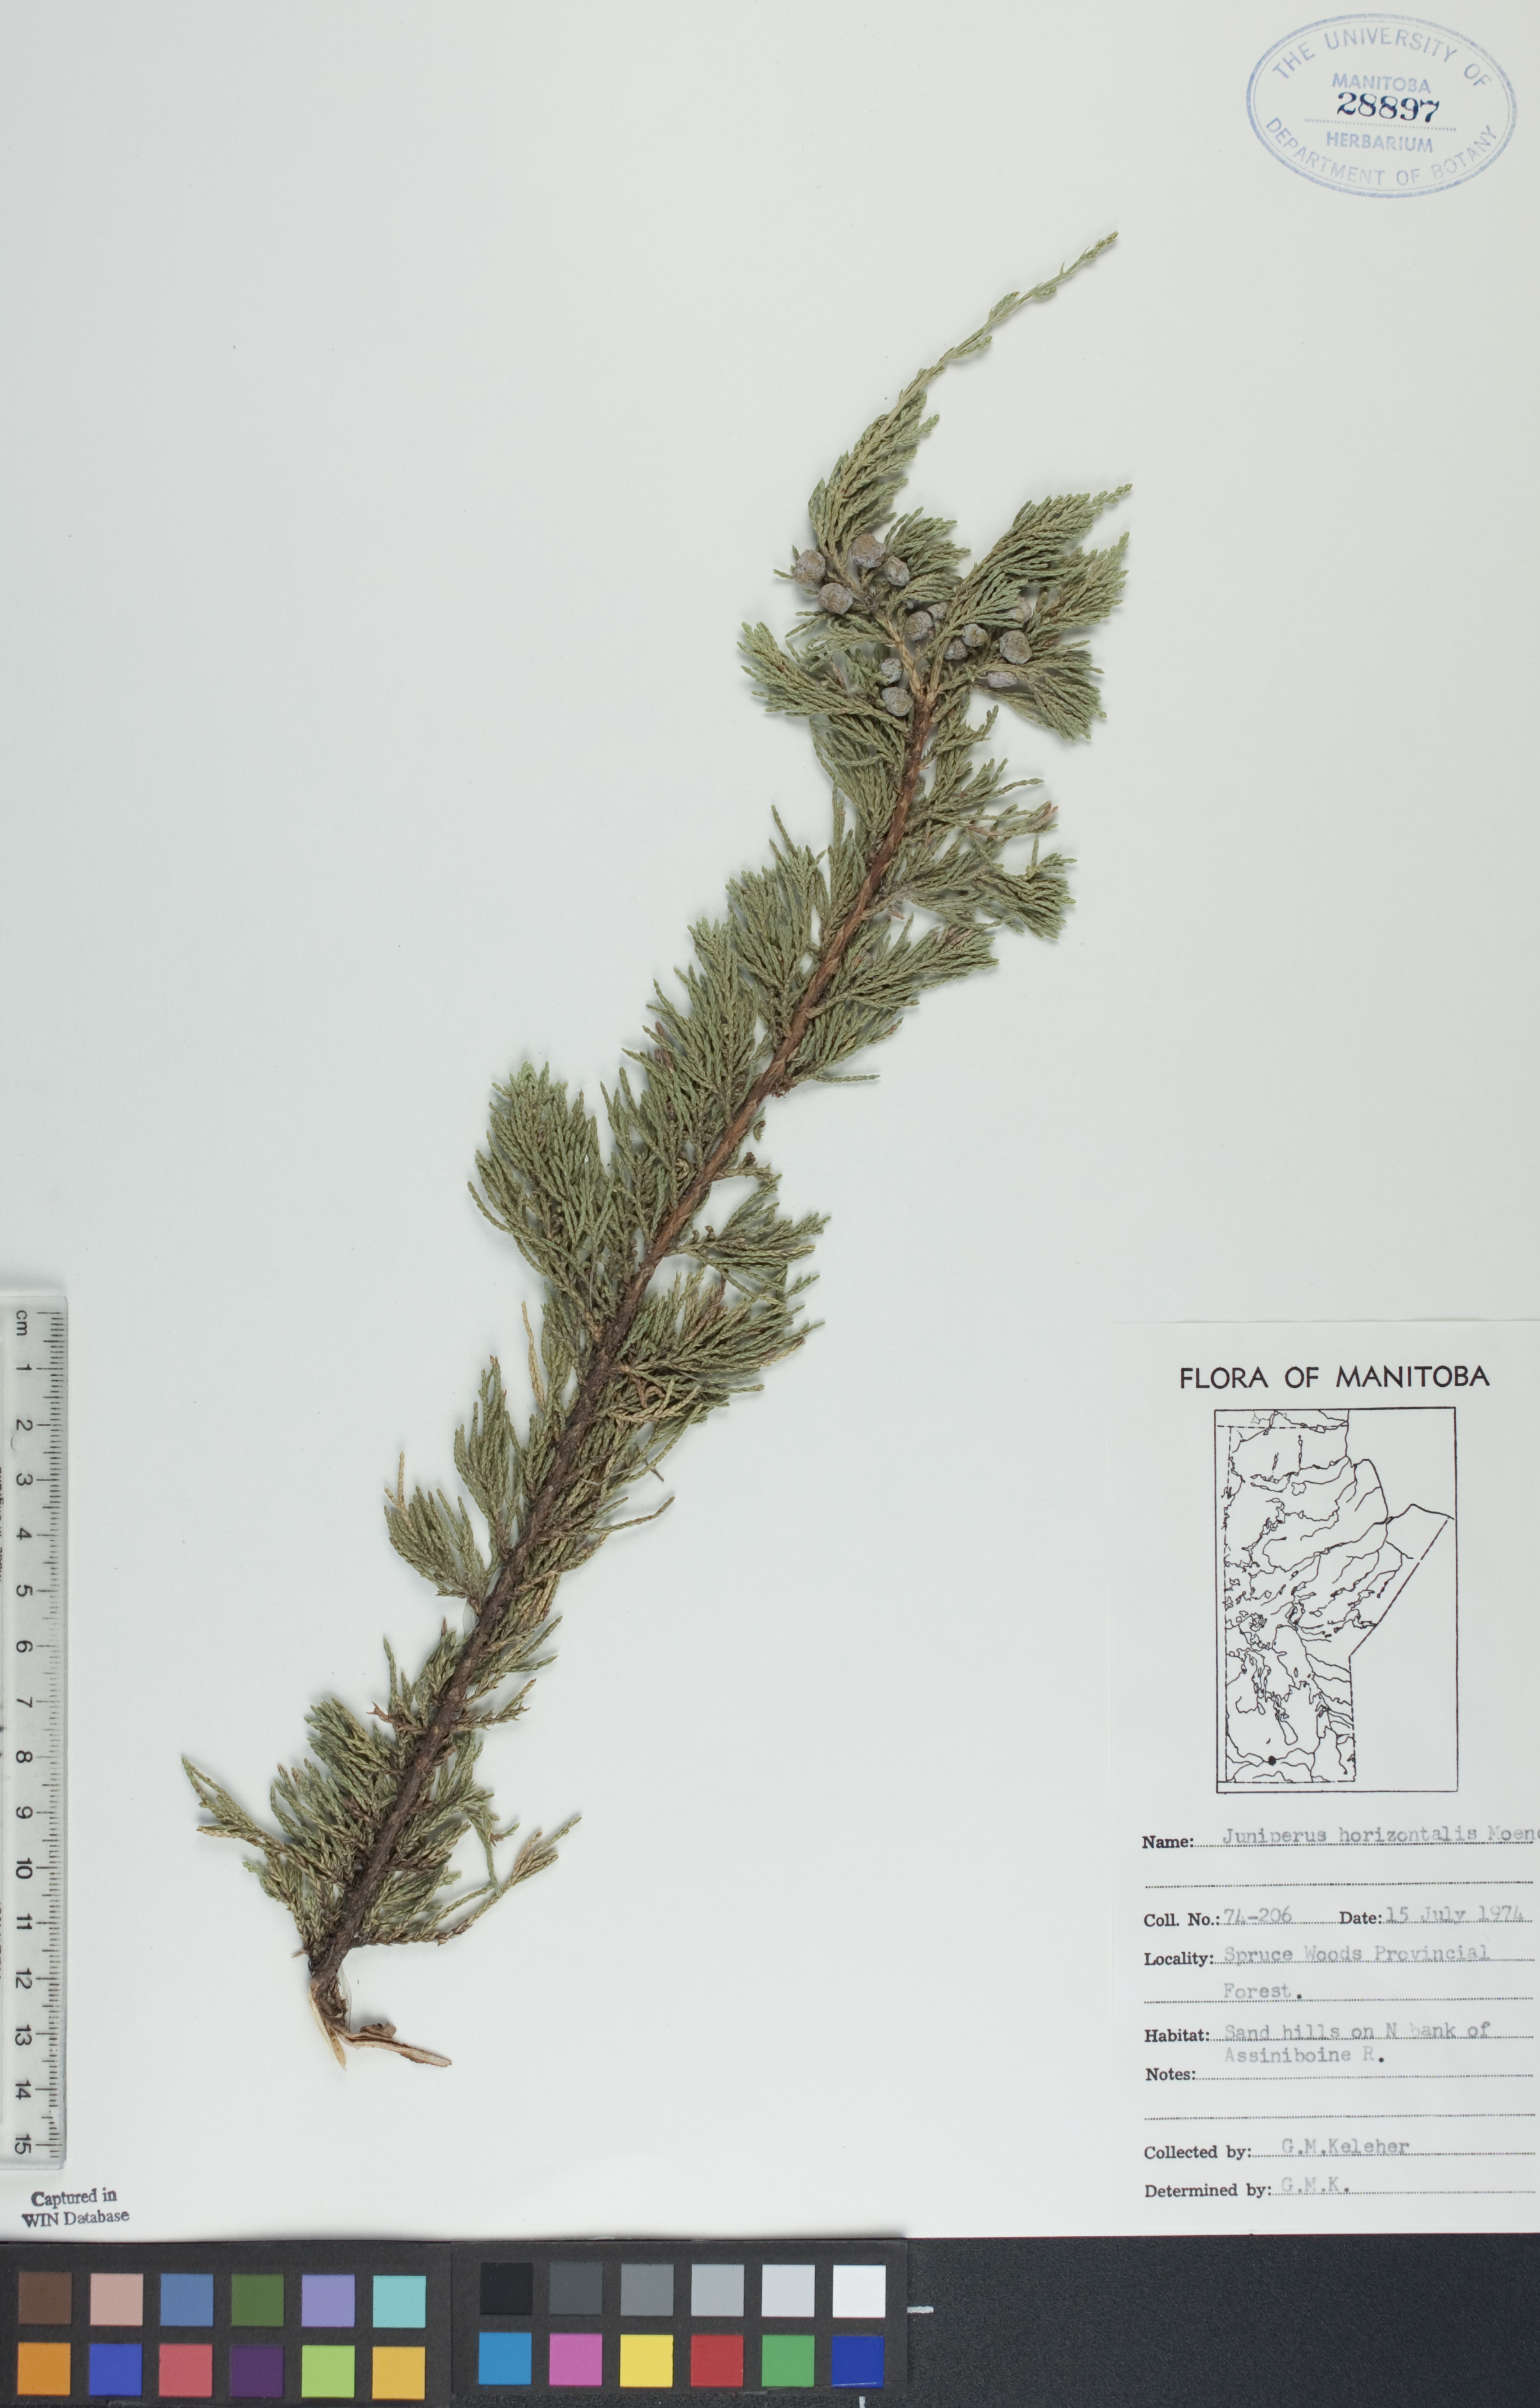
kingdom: Plantae
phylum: Tracheophyta
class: Pinopsida
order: Pinales
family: Cupressaceae
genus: Juniperus
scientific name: Juniperus horizontalis
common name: Creeping juniper
